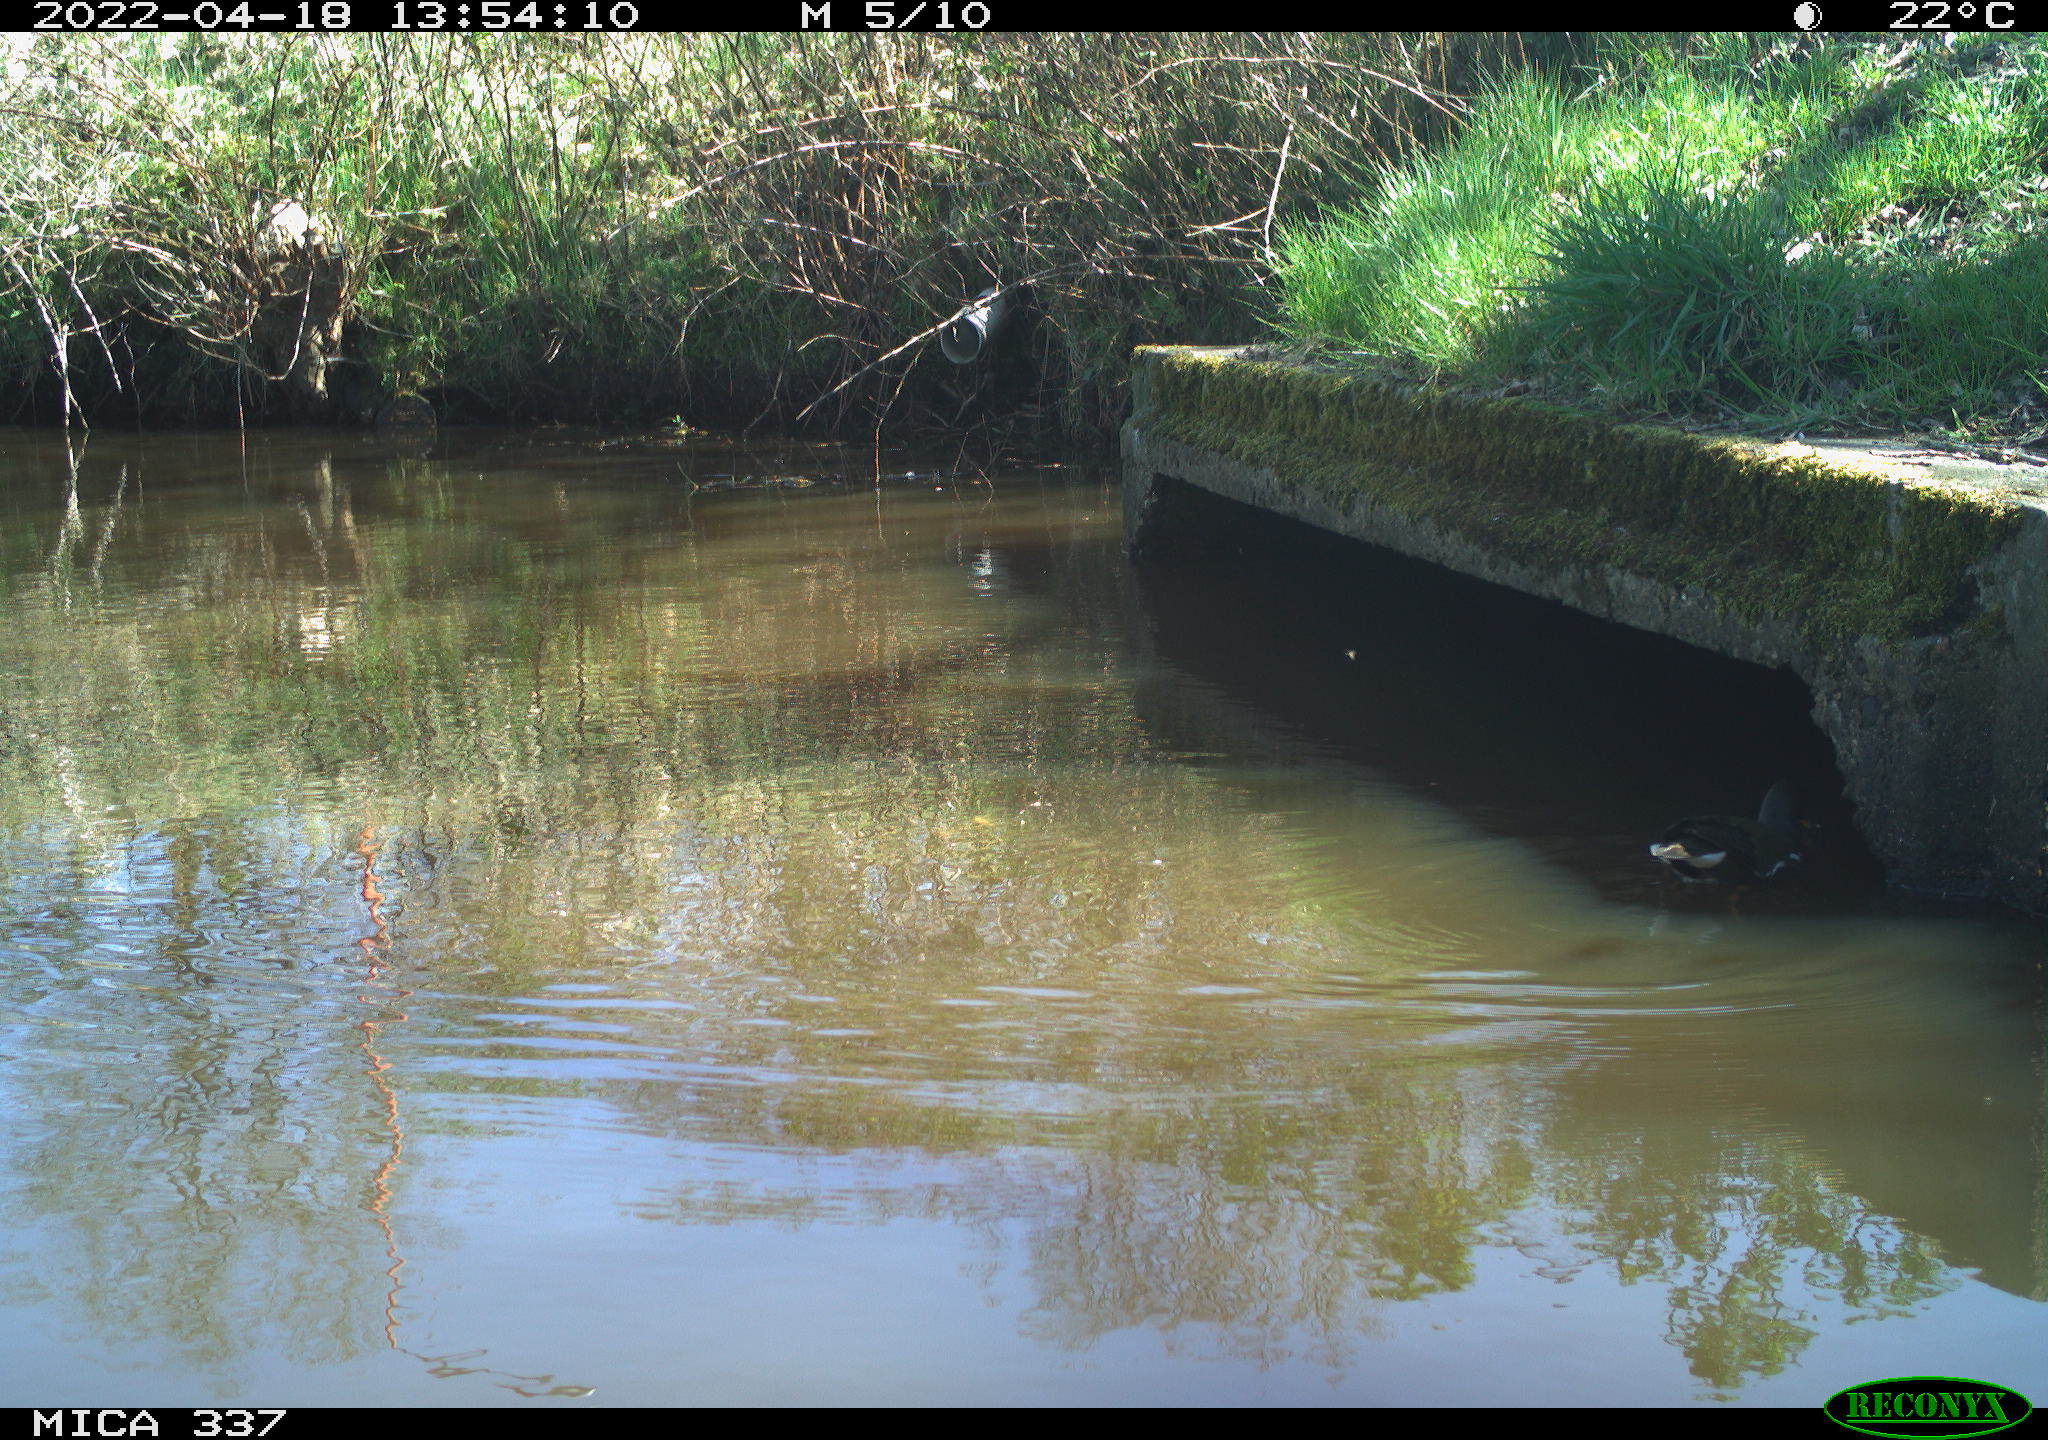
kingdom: Animalia
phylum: Chordata
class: Aves
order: Gruiformes
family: Rallidae
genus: Gallinula
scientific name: Gallinula chloropus
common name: Common moorhen
